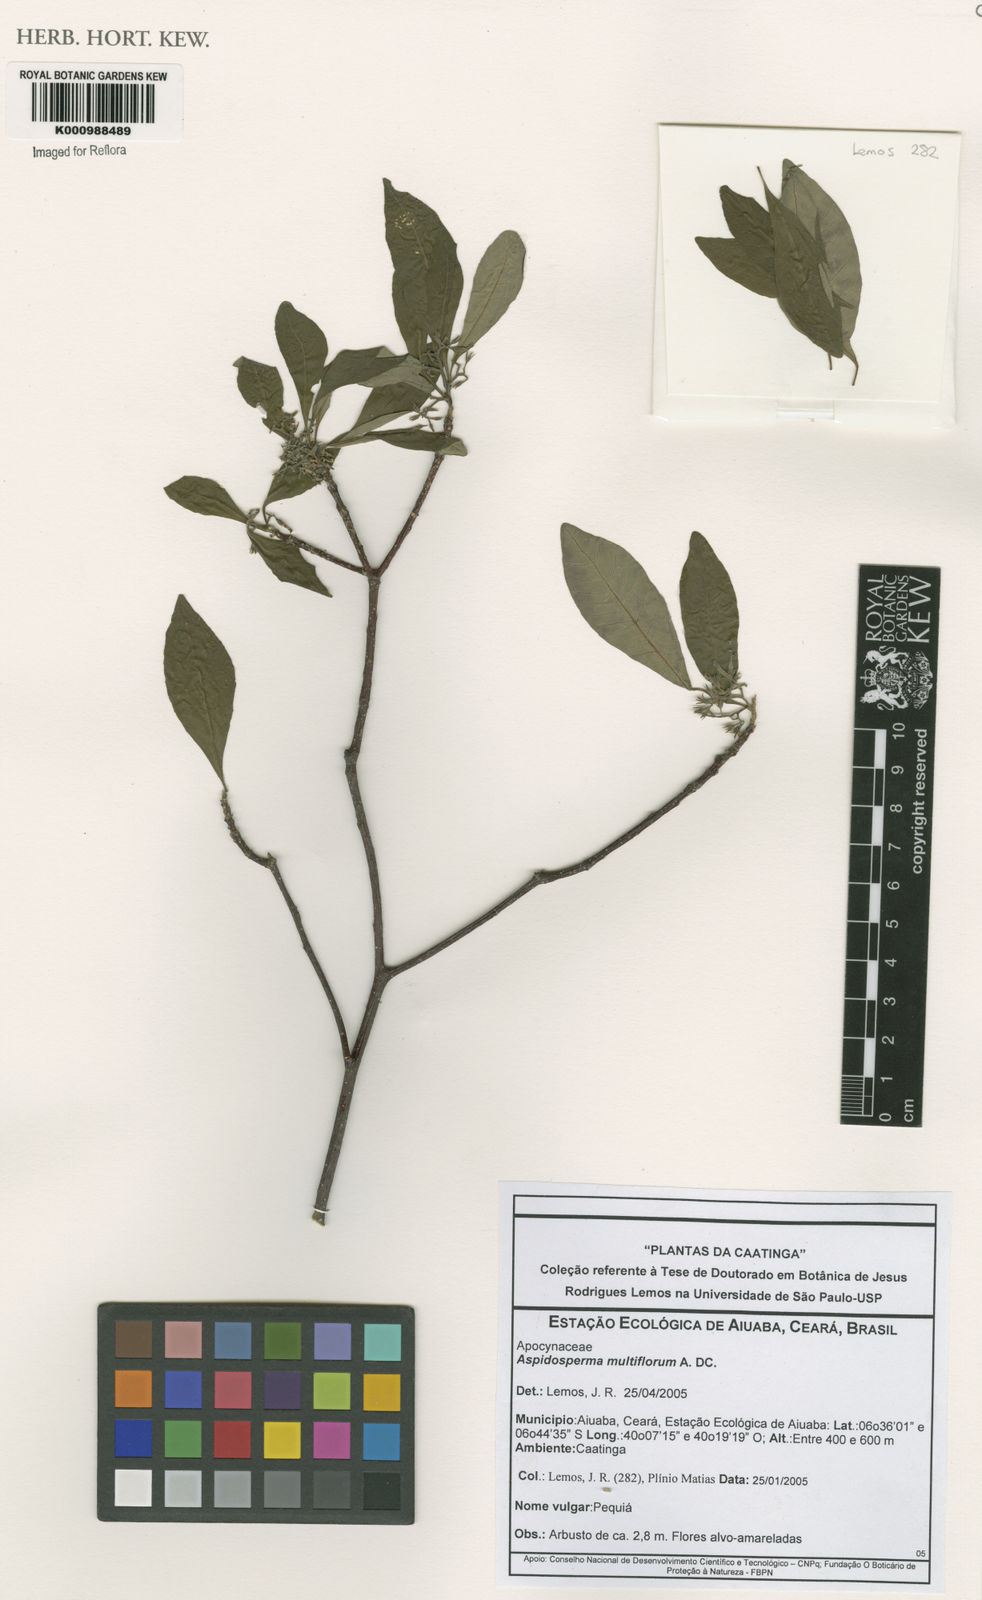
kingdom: Plantae
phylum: Tracheophyta
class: Magnoliopsida
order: Gentianales
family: Apocynaceae
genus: Aspidosperma
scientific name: Aspidosperma multiflorum
